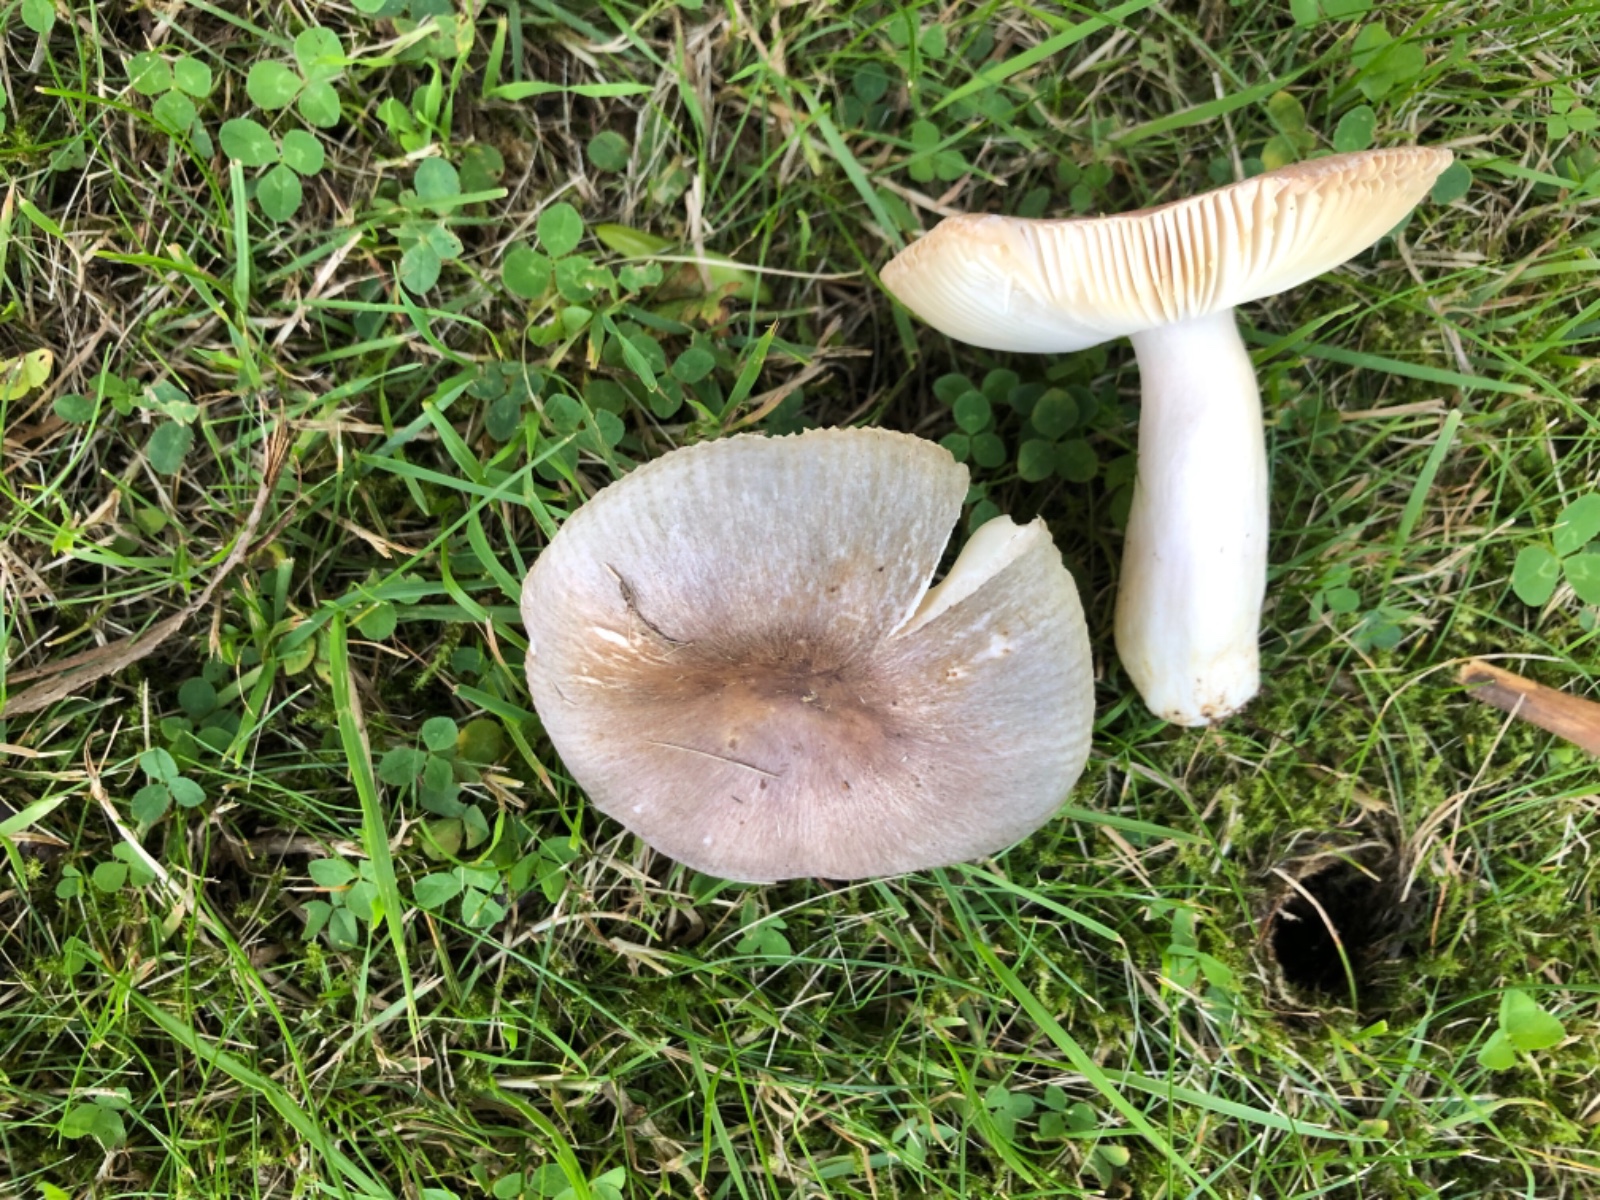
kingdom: Fungi
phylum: Basidiomycota
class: Agaricomycetes
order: Russulales
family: Russulaceae
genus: Russula
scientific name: Russula
